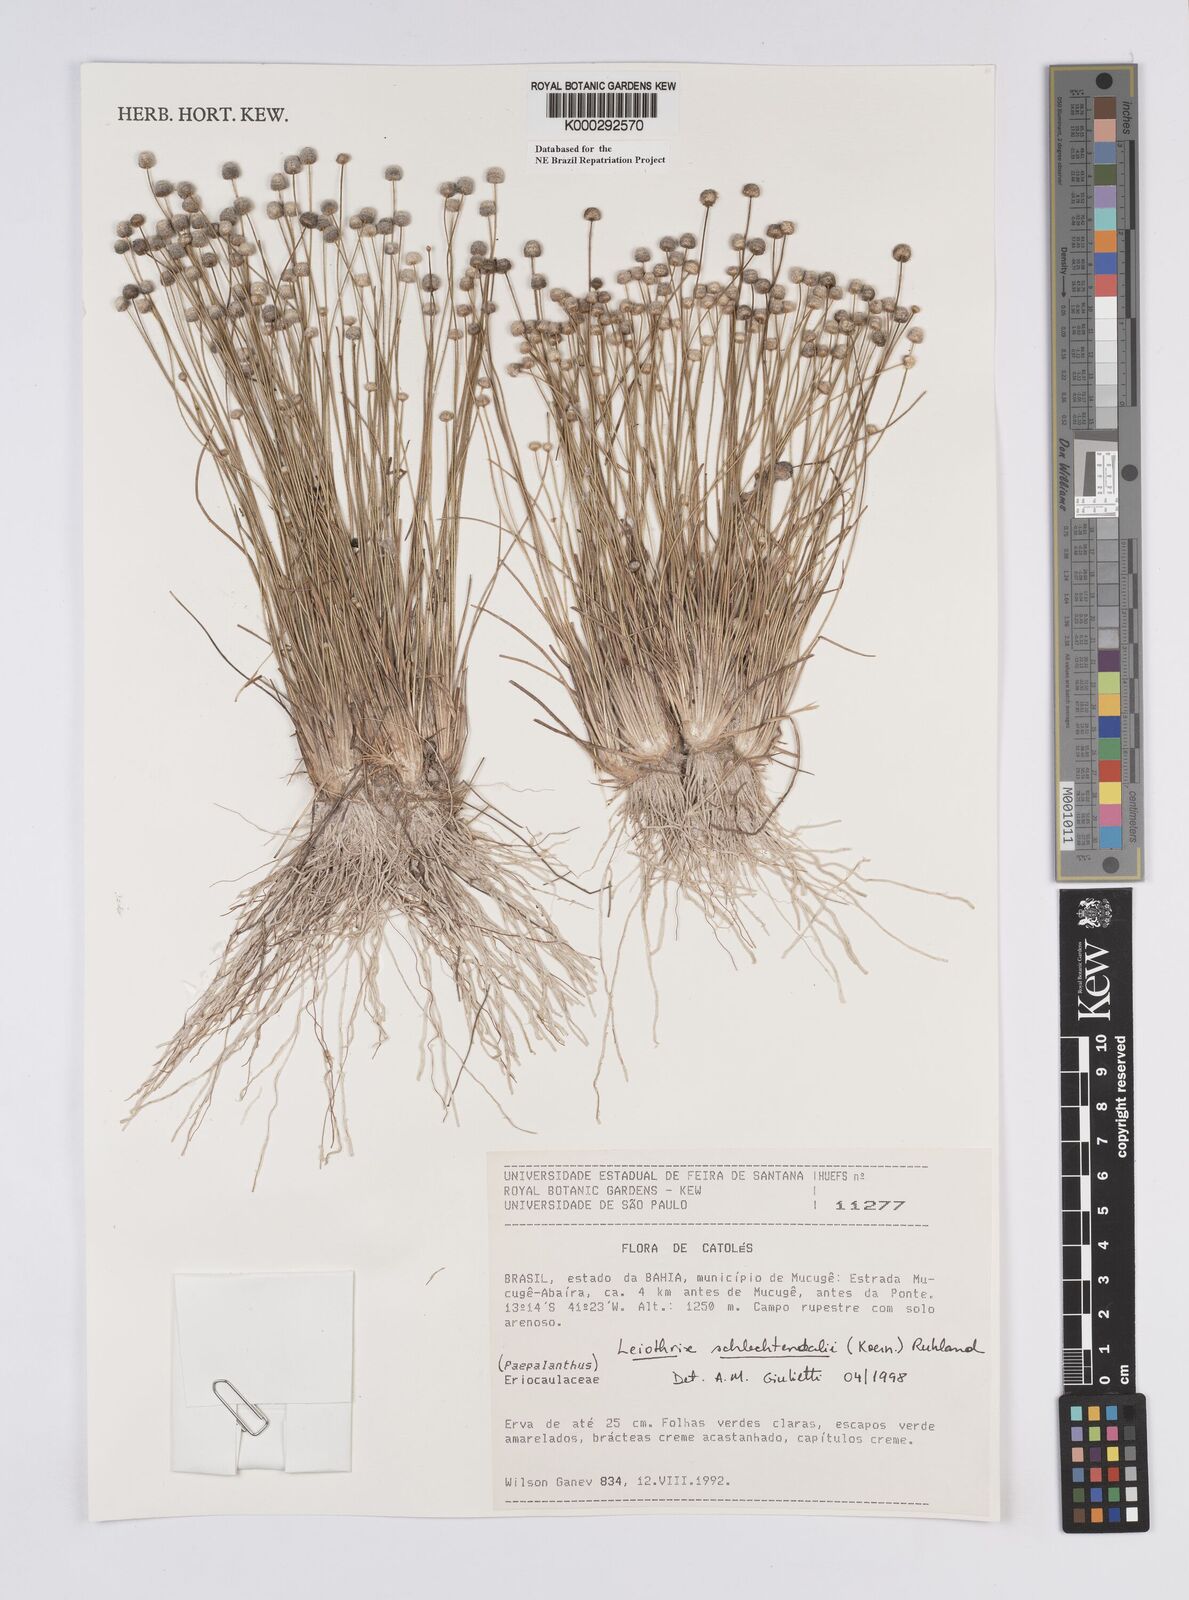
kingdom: Plantae
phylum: Tracheophyta
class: Liliopsida
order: Poales
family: Eriocaulaceae
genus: Leiothrix
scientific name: Leiothrix schlechtendalii
